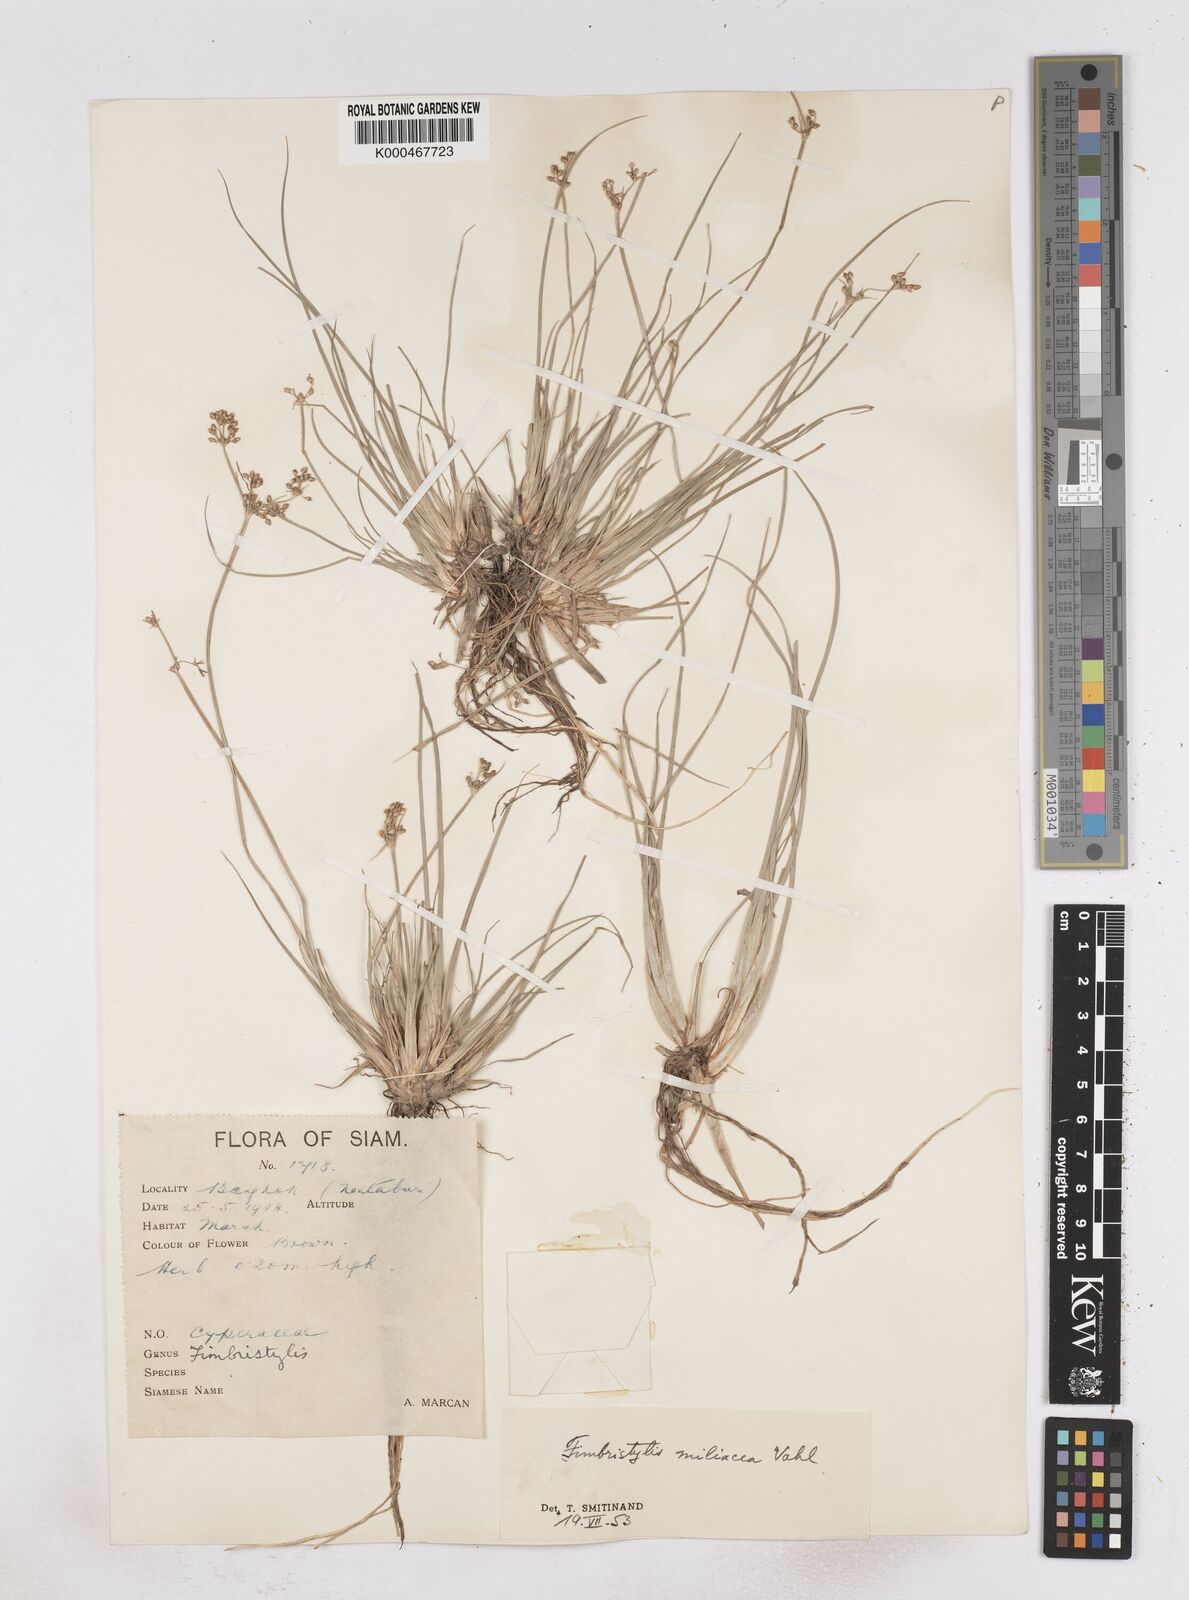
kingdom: Plantae
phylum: Tracheophyta
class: Liliopsida
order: Poales
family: Cyperaceae
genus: Fimbristylis
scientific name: Fimbristylis quinquangularis
